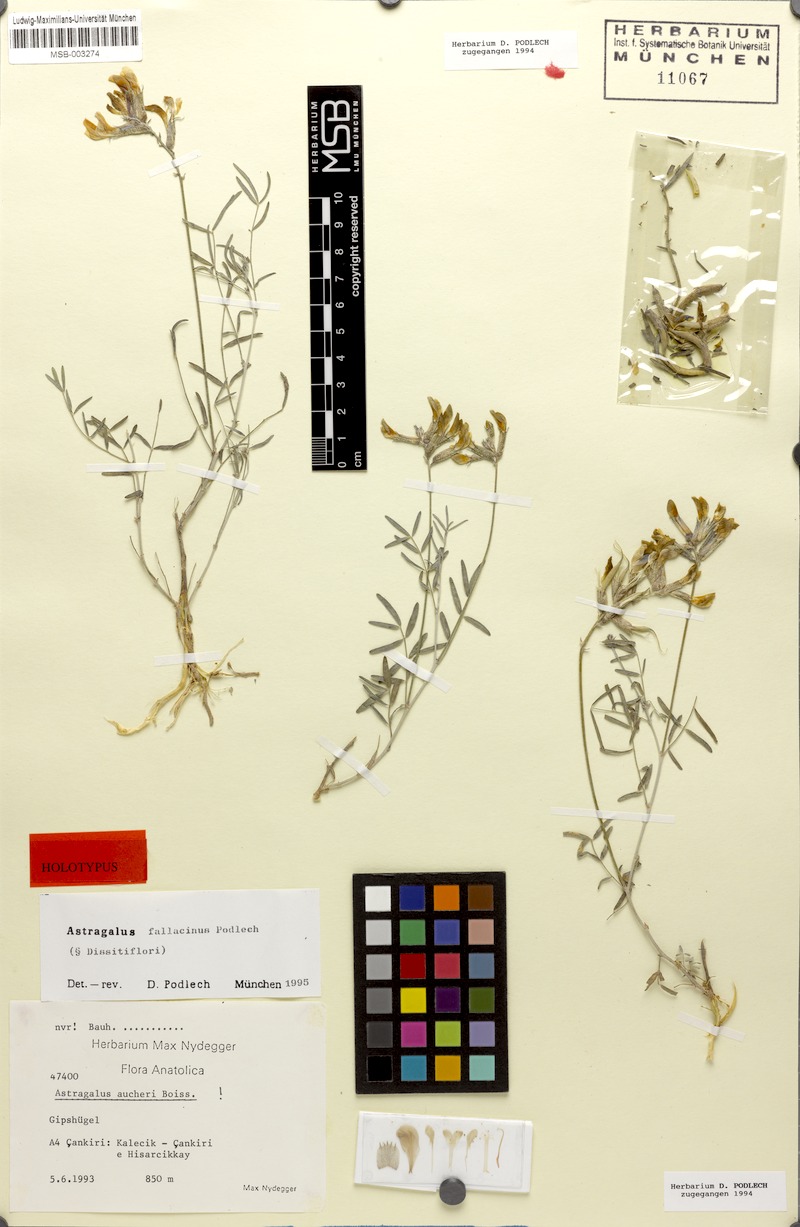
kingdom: Plantae
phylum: Tracheophyta
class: Magnoliopsida
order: Fabales
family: Fabaceae
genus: Astragalus
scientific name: Astragalus aucheri
